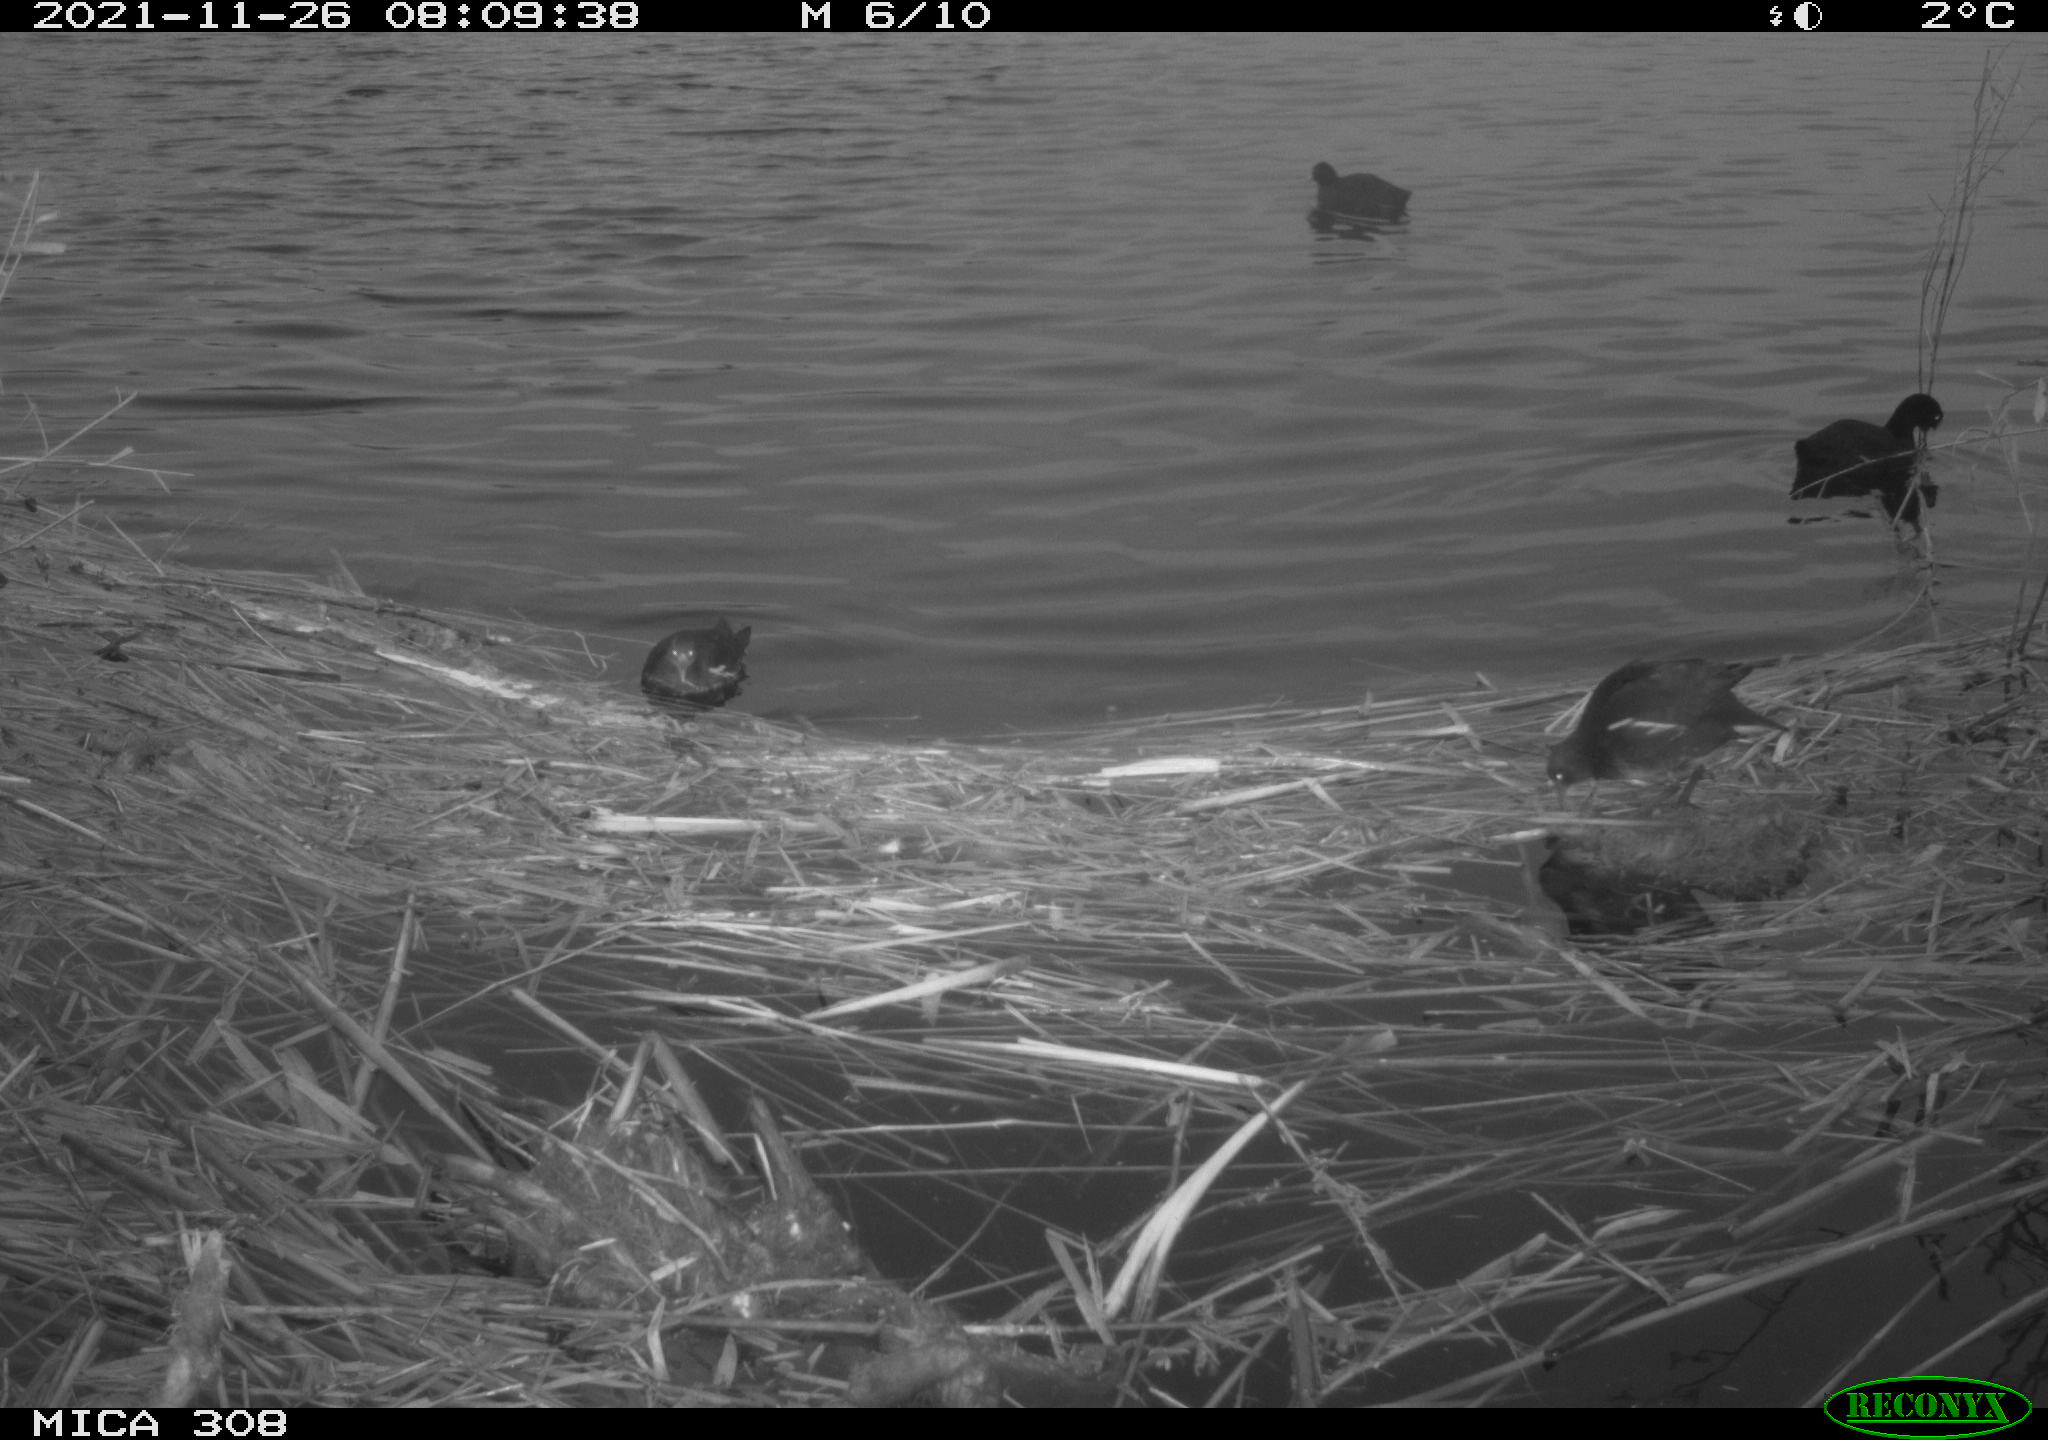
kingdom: Animalia
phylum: Chordata
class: Aves
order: Gruiformes
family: Rallidae
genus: Gallinula
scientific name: Gallinula chloropus
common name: Common moorhen
